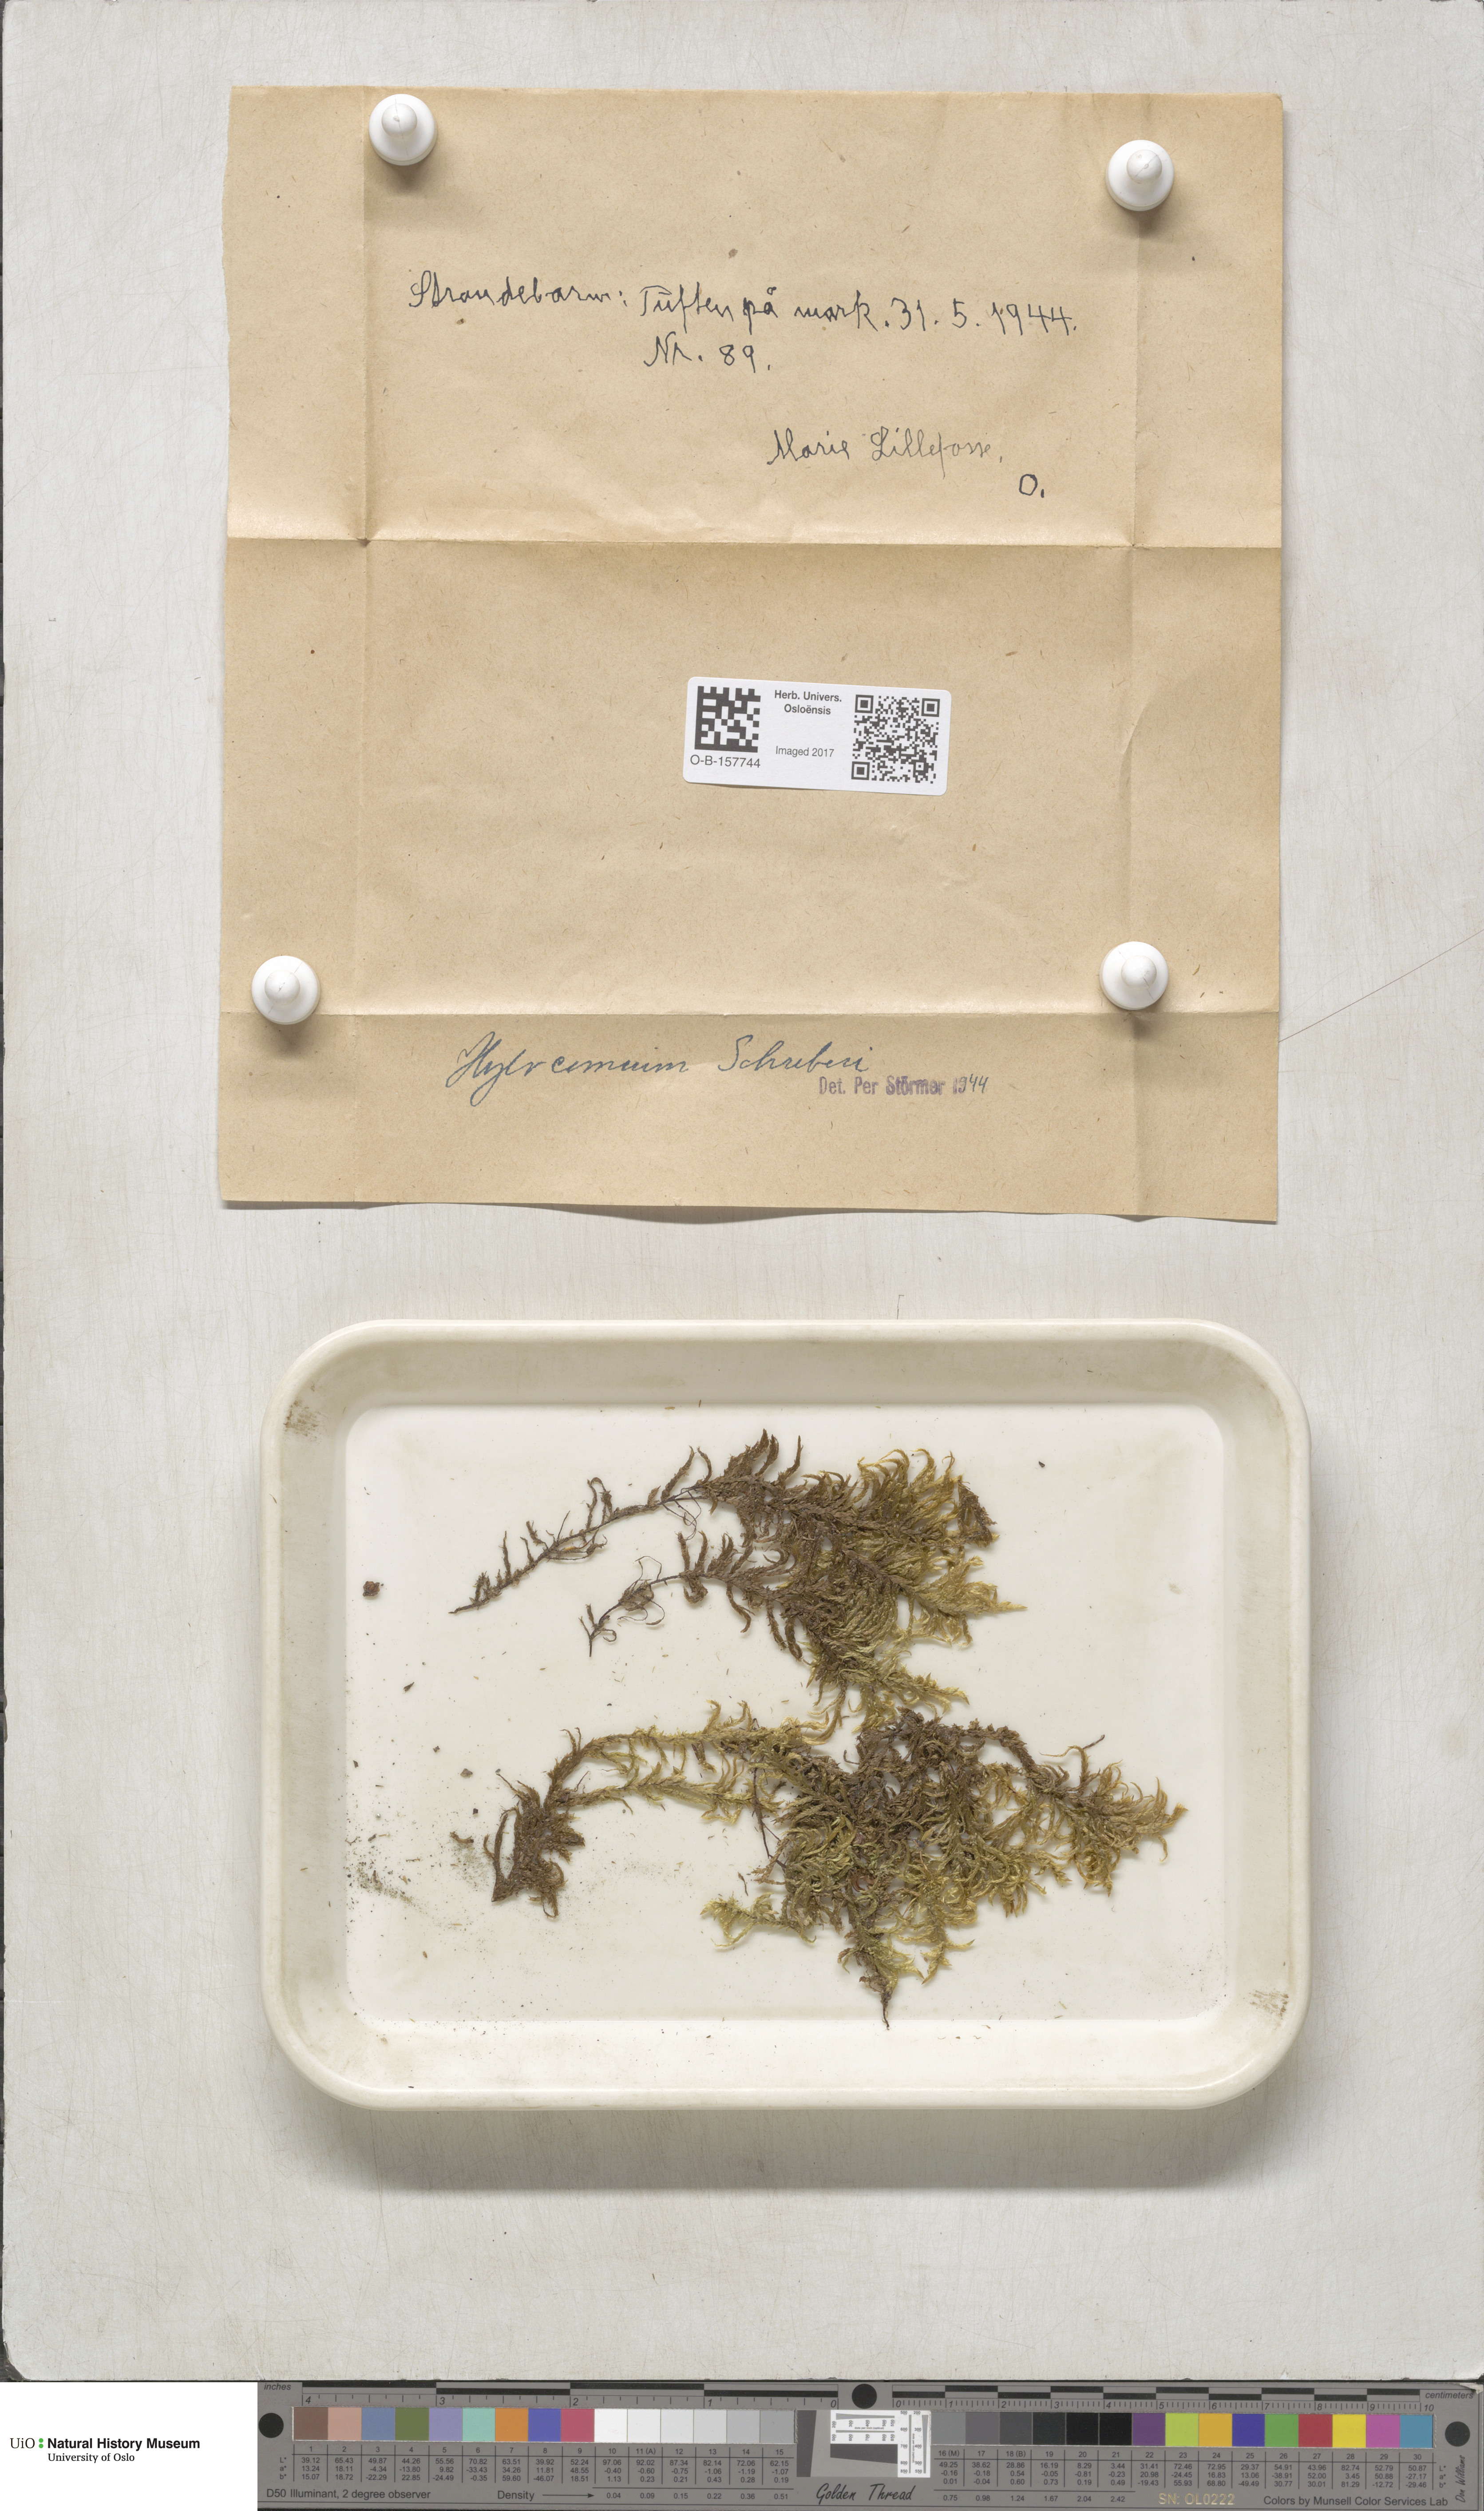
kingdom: Plantae
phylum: Bryophyta
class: Bryopsida
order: Hypnales
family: Hylocomiaceae
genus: Pleurozium
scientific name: Pleurozium schreberi
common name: Red-stemmed feather moss
